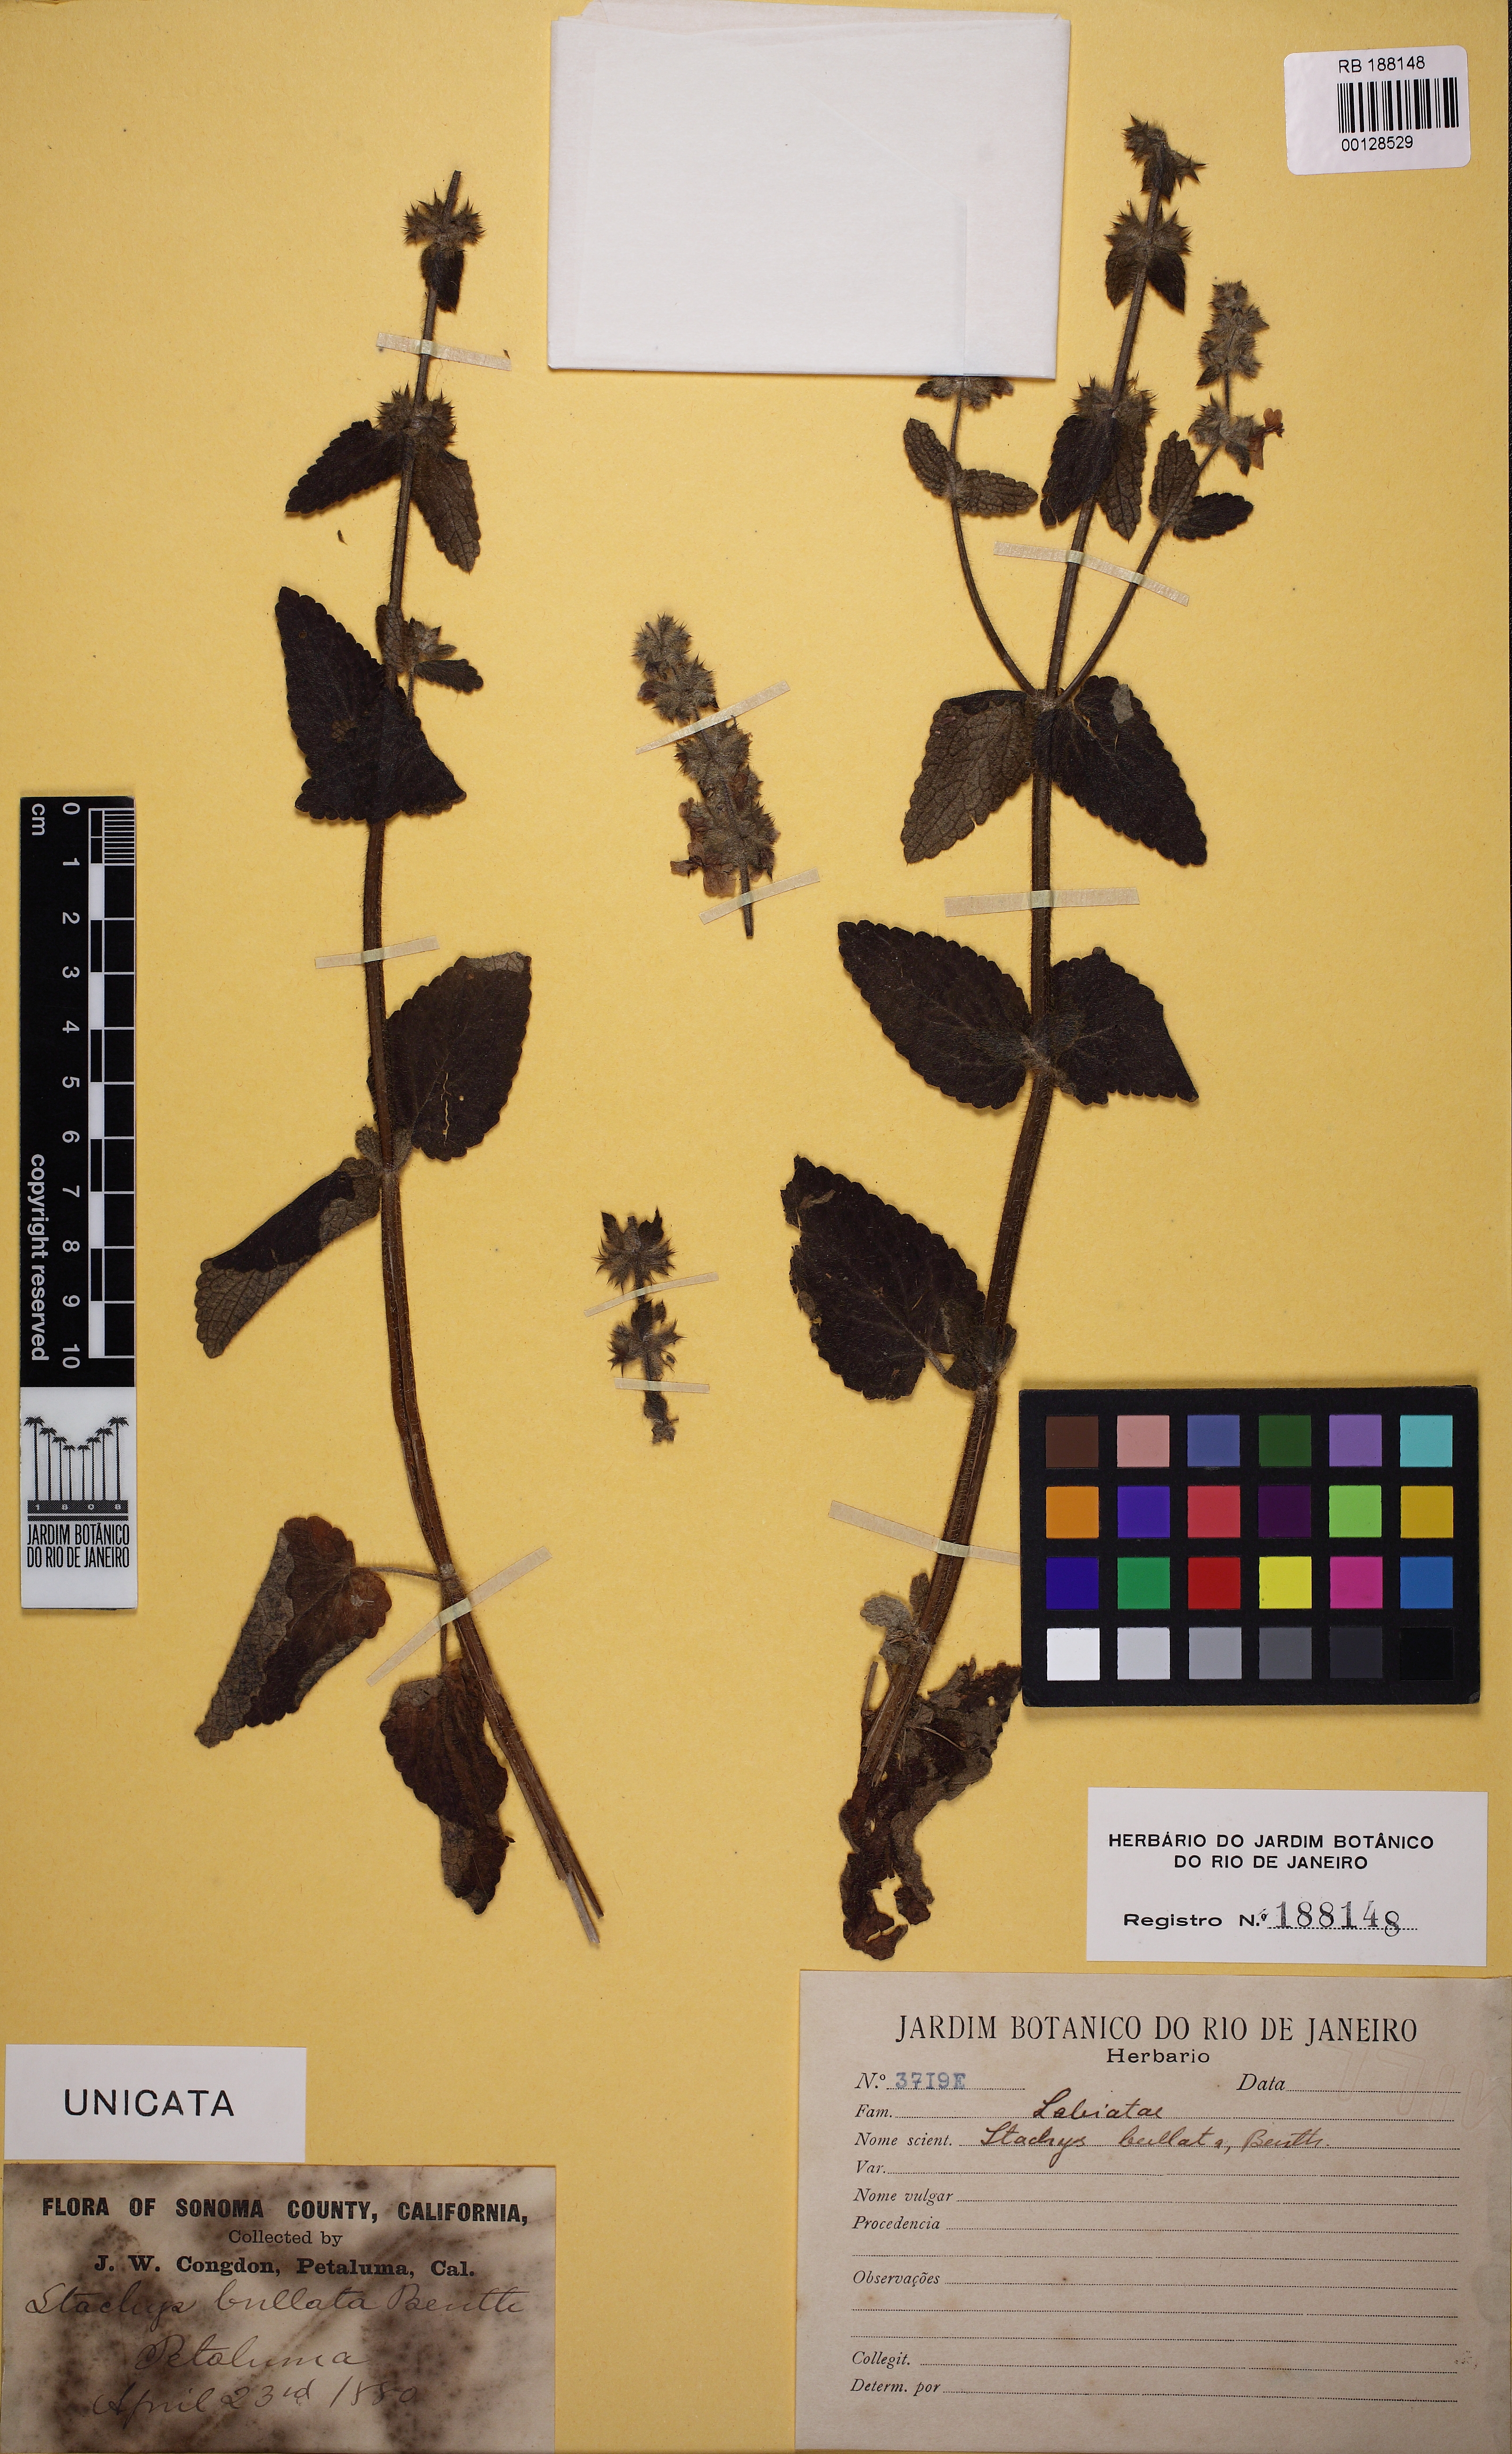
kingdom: Plantae
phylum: Tracheophyta
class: Magnoliopsida
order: Lamiales
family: Lamiaceae
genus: Stachys
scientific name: Stachys bullata
